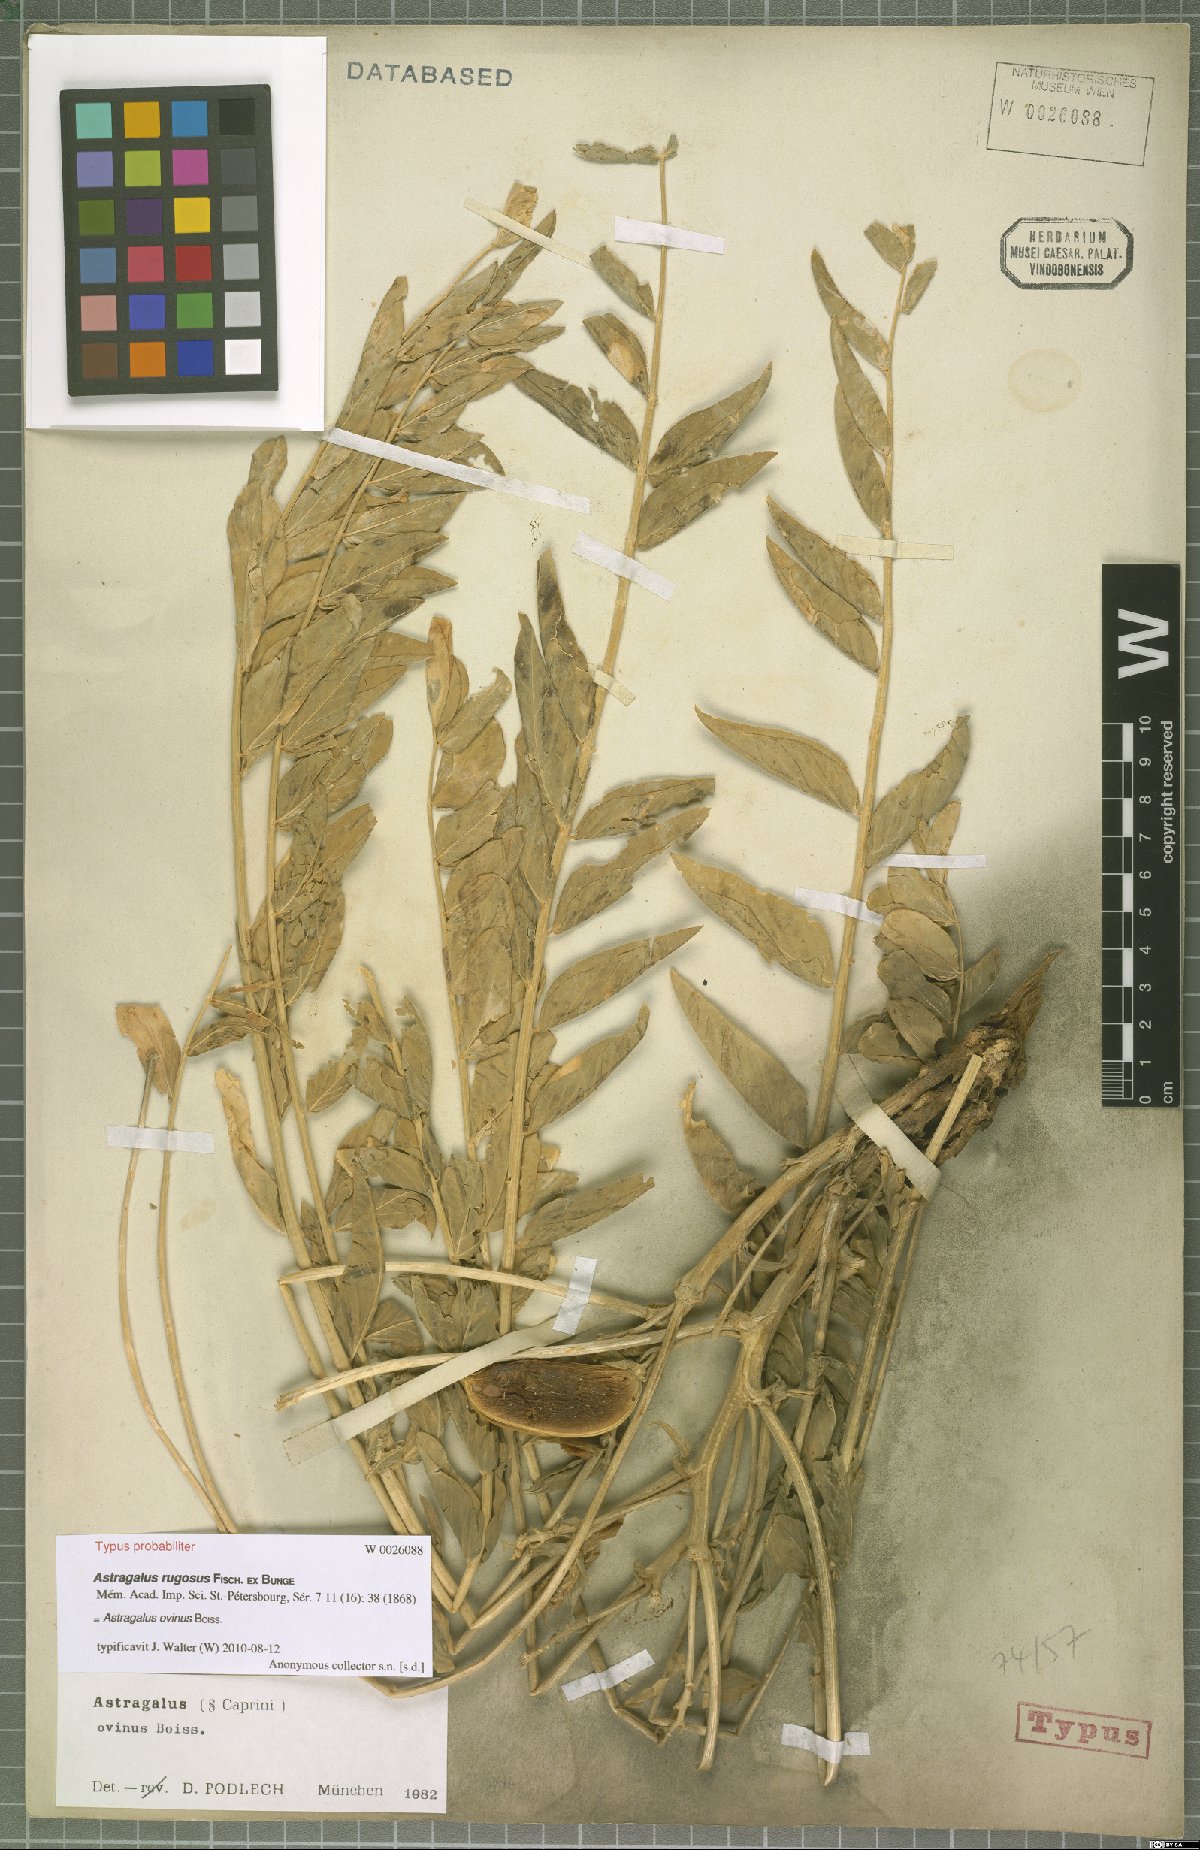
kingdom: Plantae
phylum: Tracheophyta
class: Magnoliopsida
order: Fabales
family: Fabaceae
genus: Astragalus
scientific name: Astragalus ovinus
